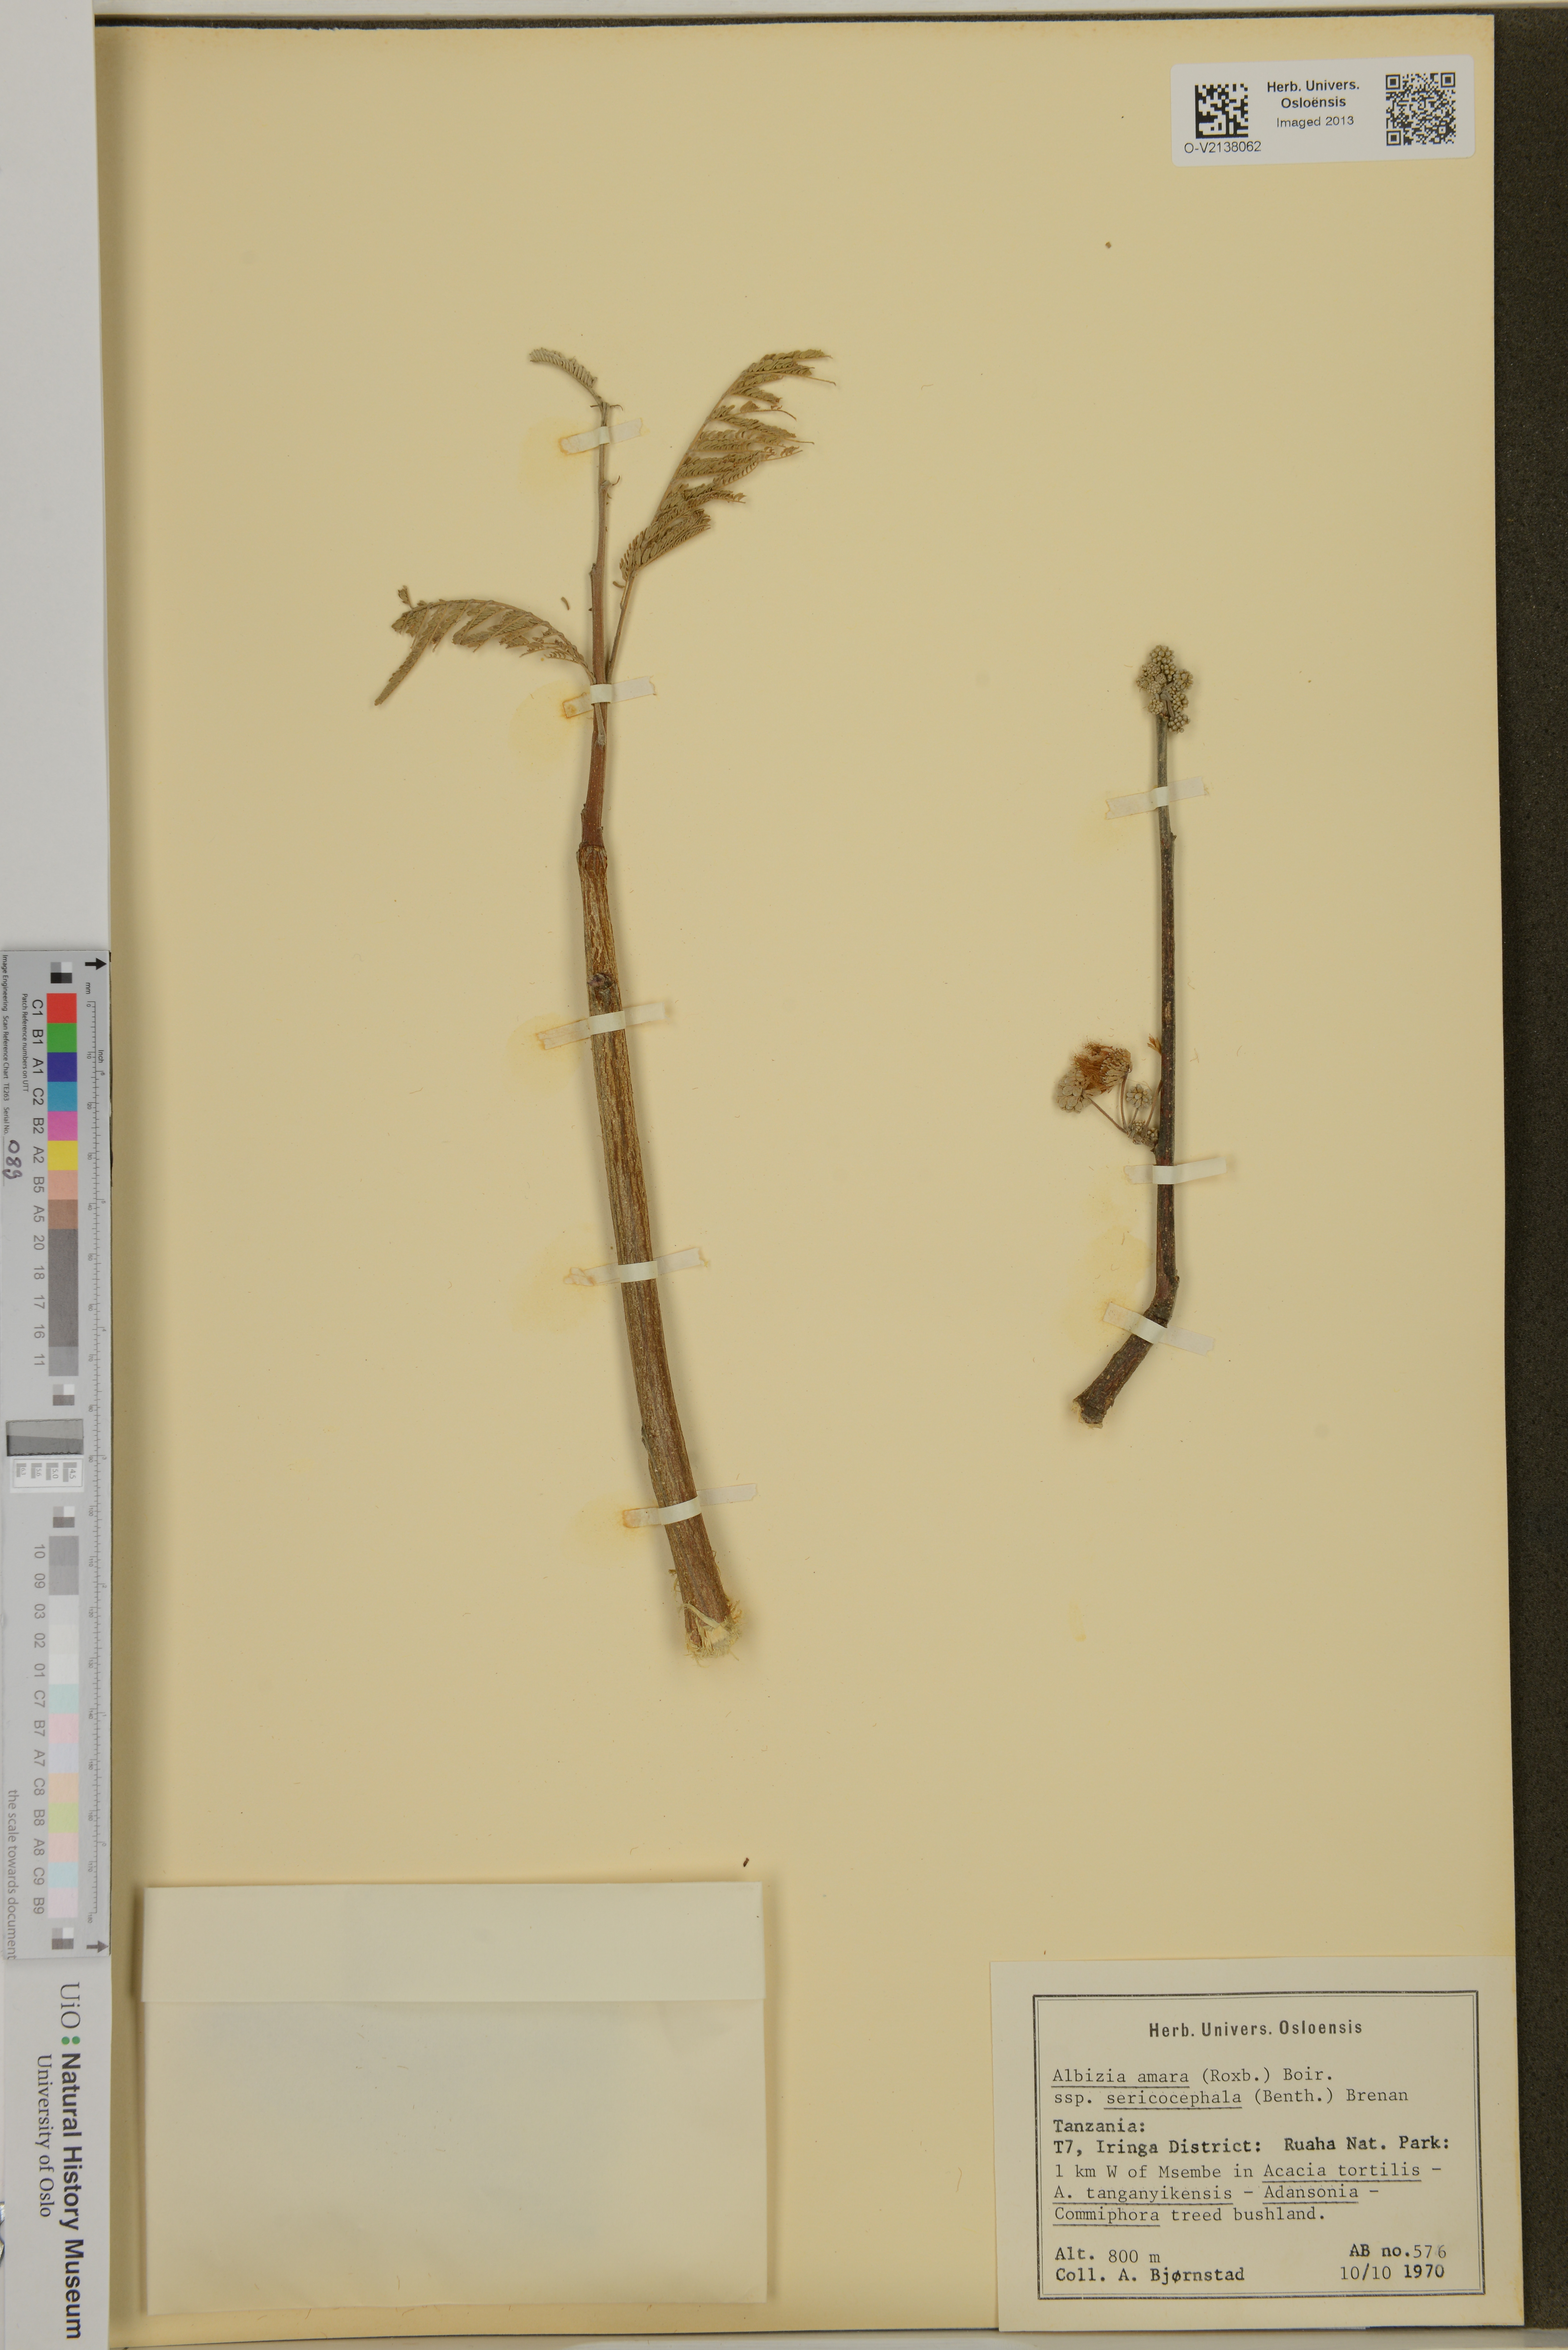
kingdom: Plantae
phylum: Tracheophyta
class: Magnoliopsida
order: Fabales
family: Fabaceae
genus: Albizia
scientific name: Albizia amara
